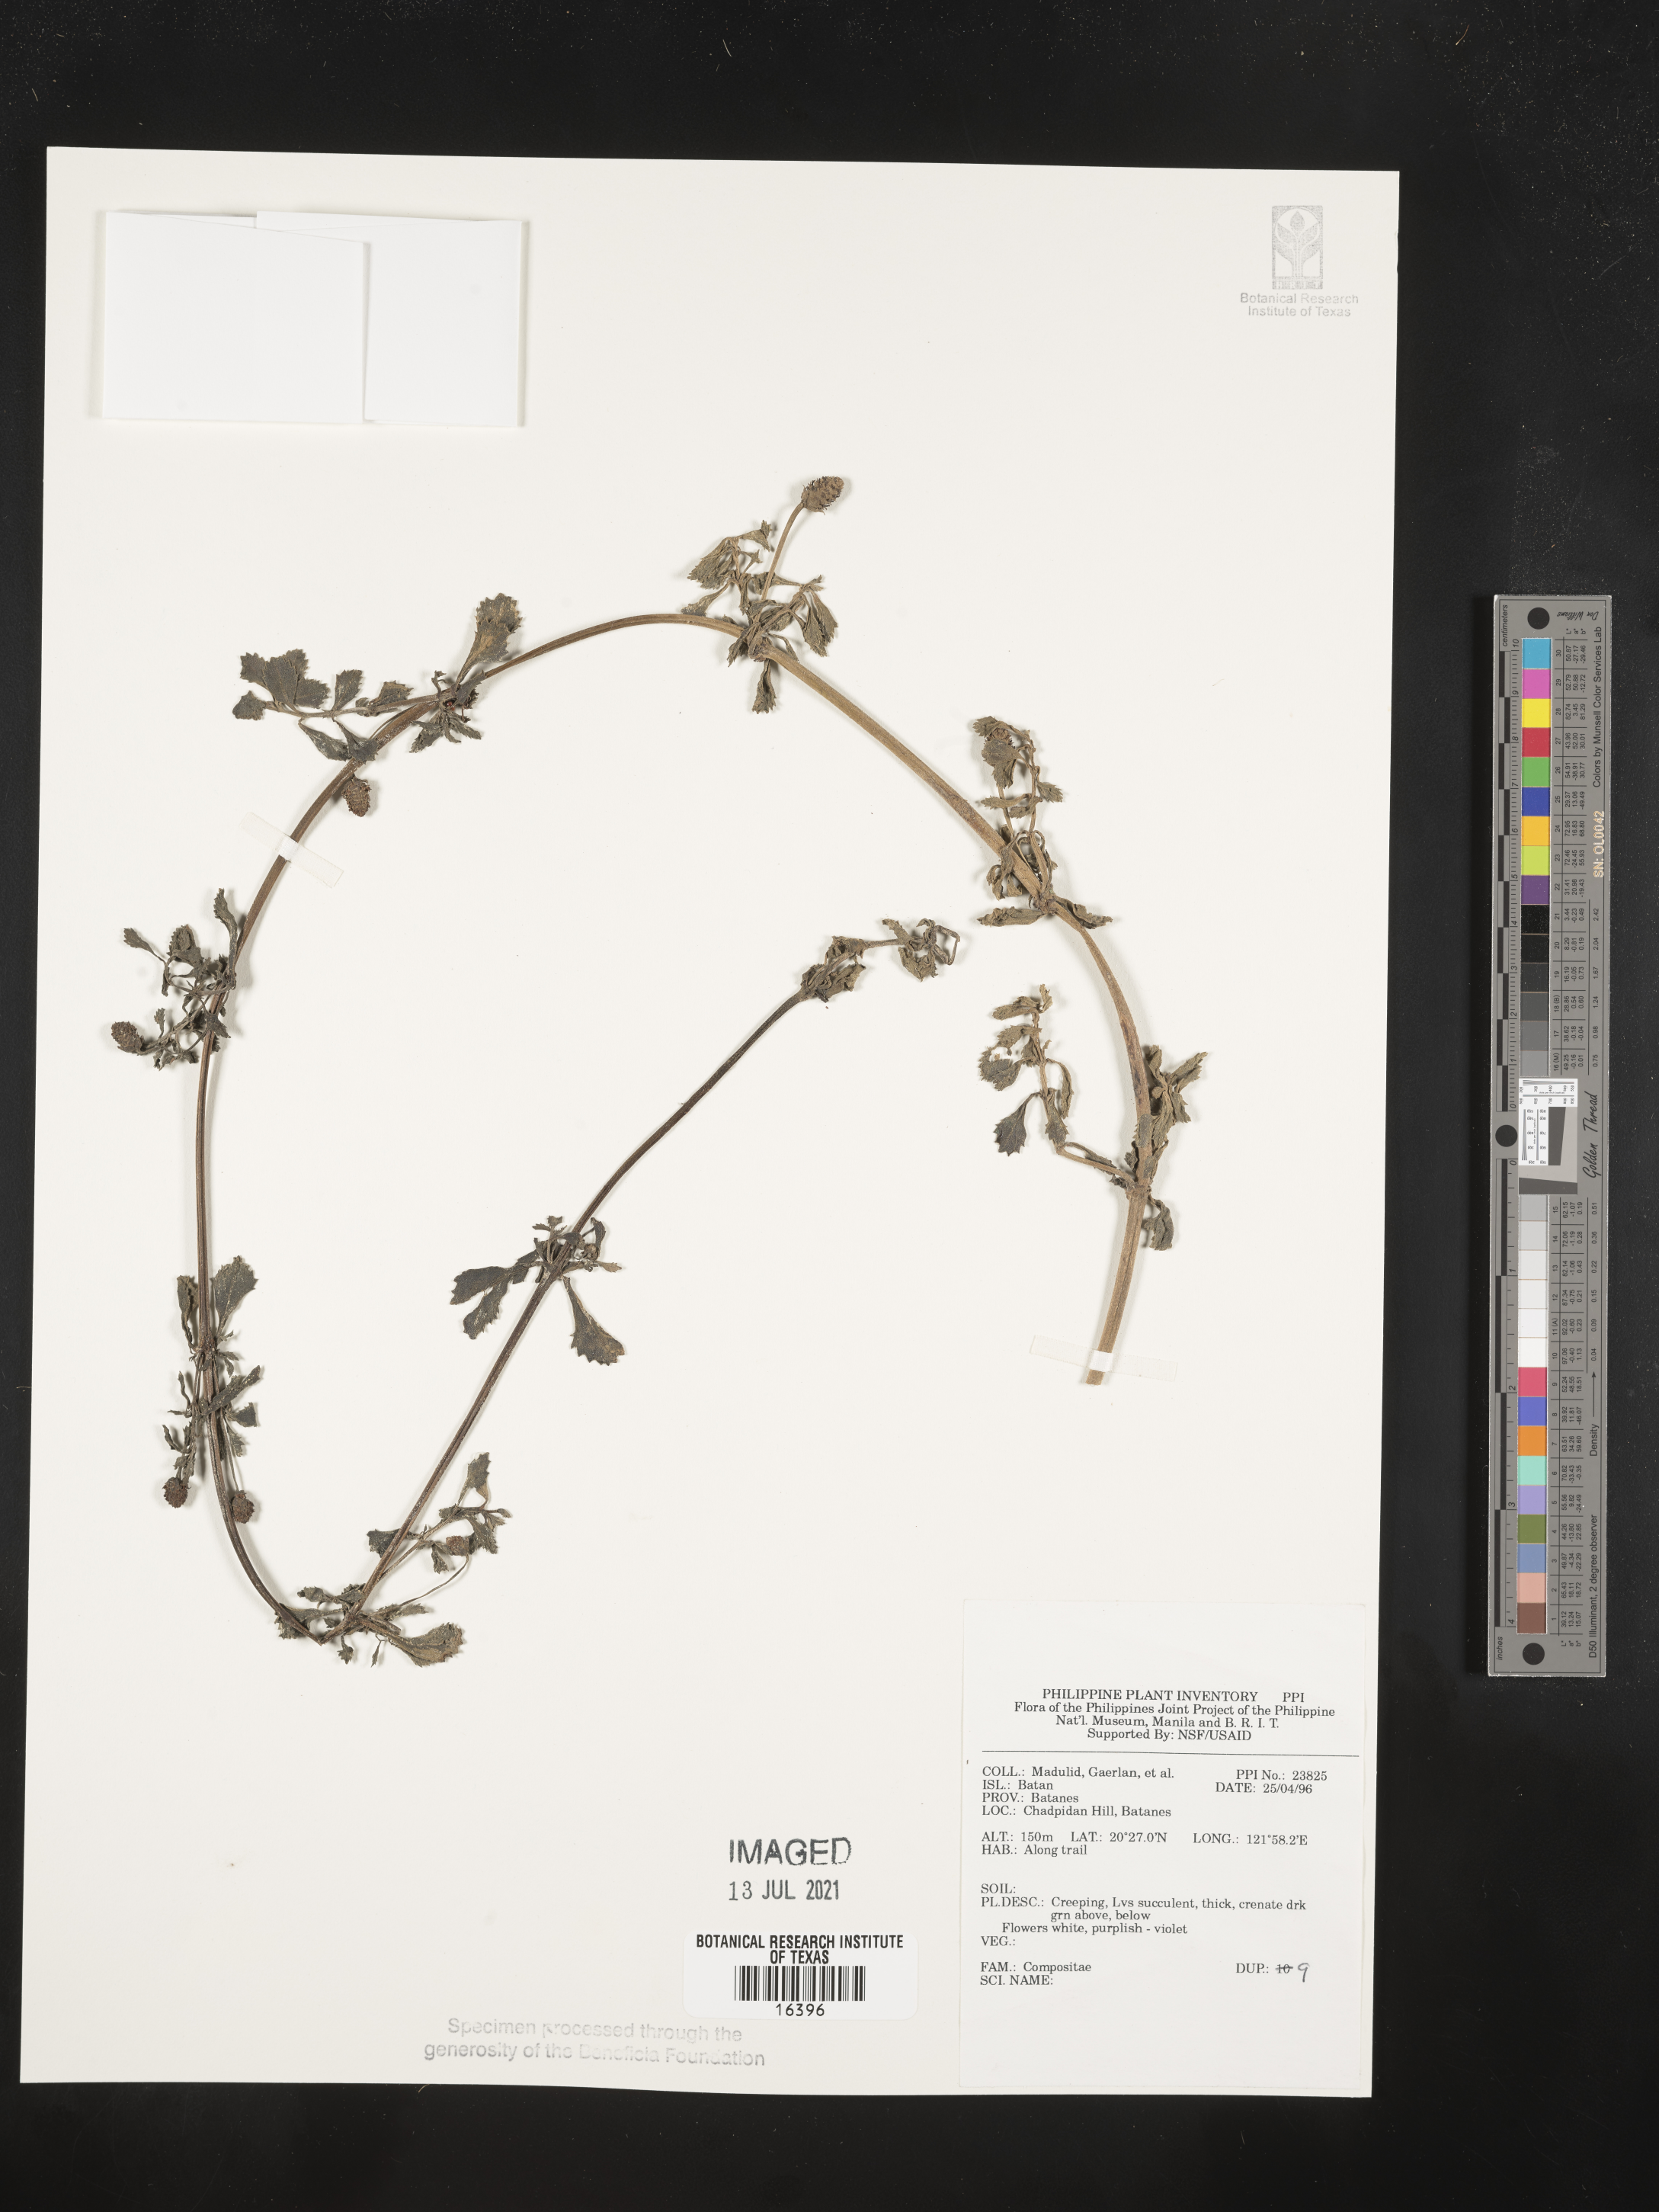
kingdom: Plantae
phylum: Tracheophyta
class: Magnoliopsida
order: Asterales
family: Asteraceae
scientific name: Asteraceae
